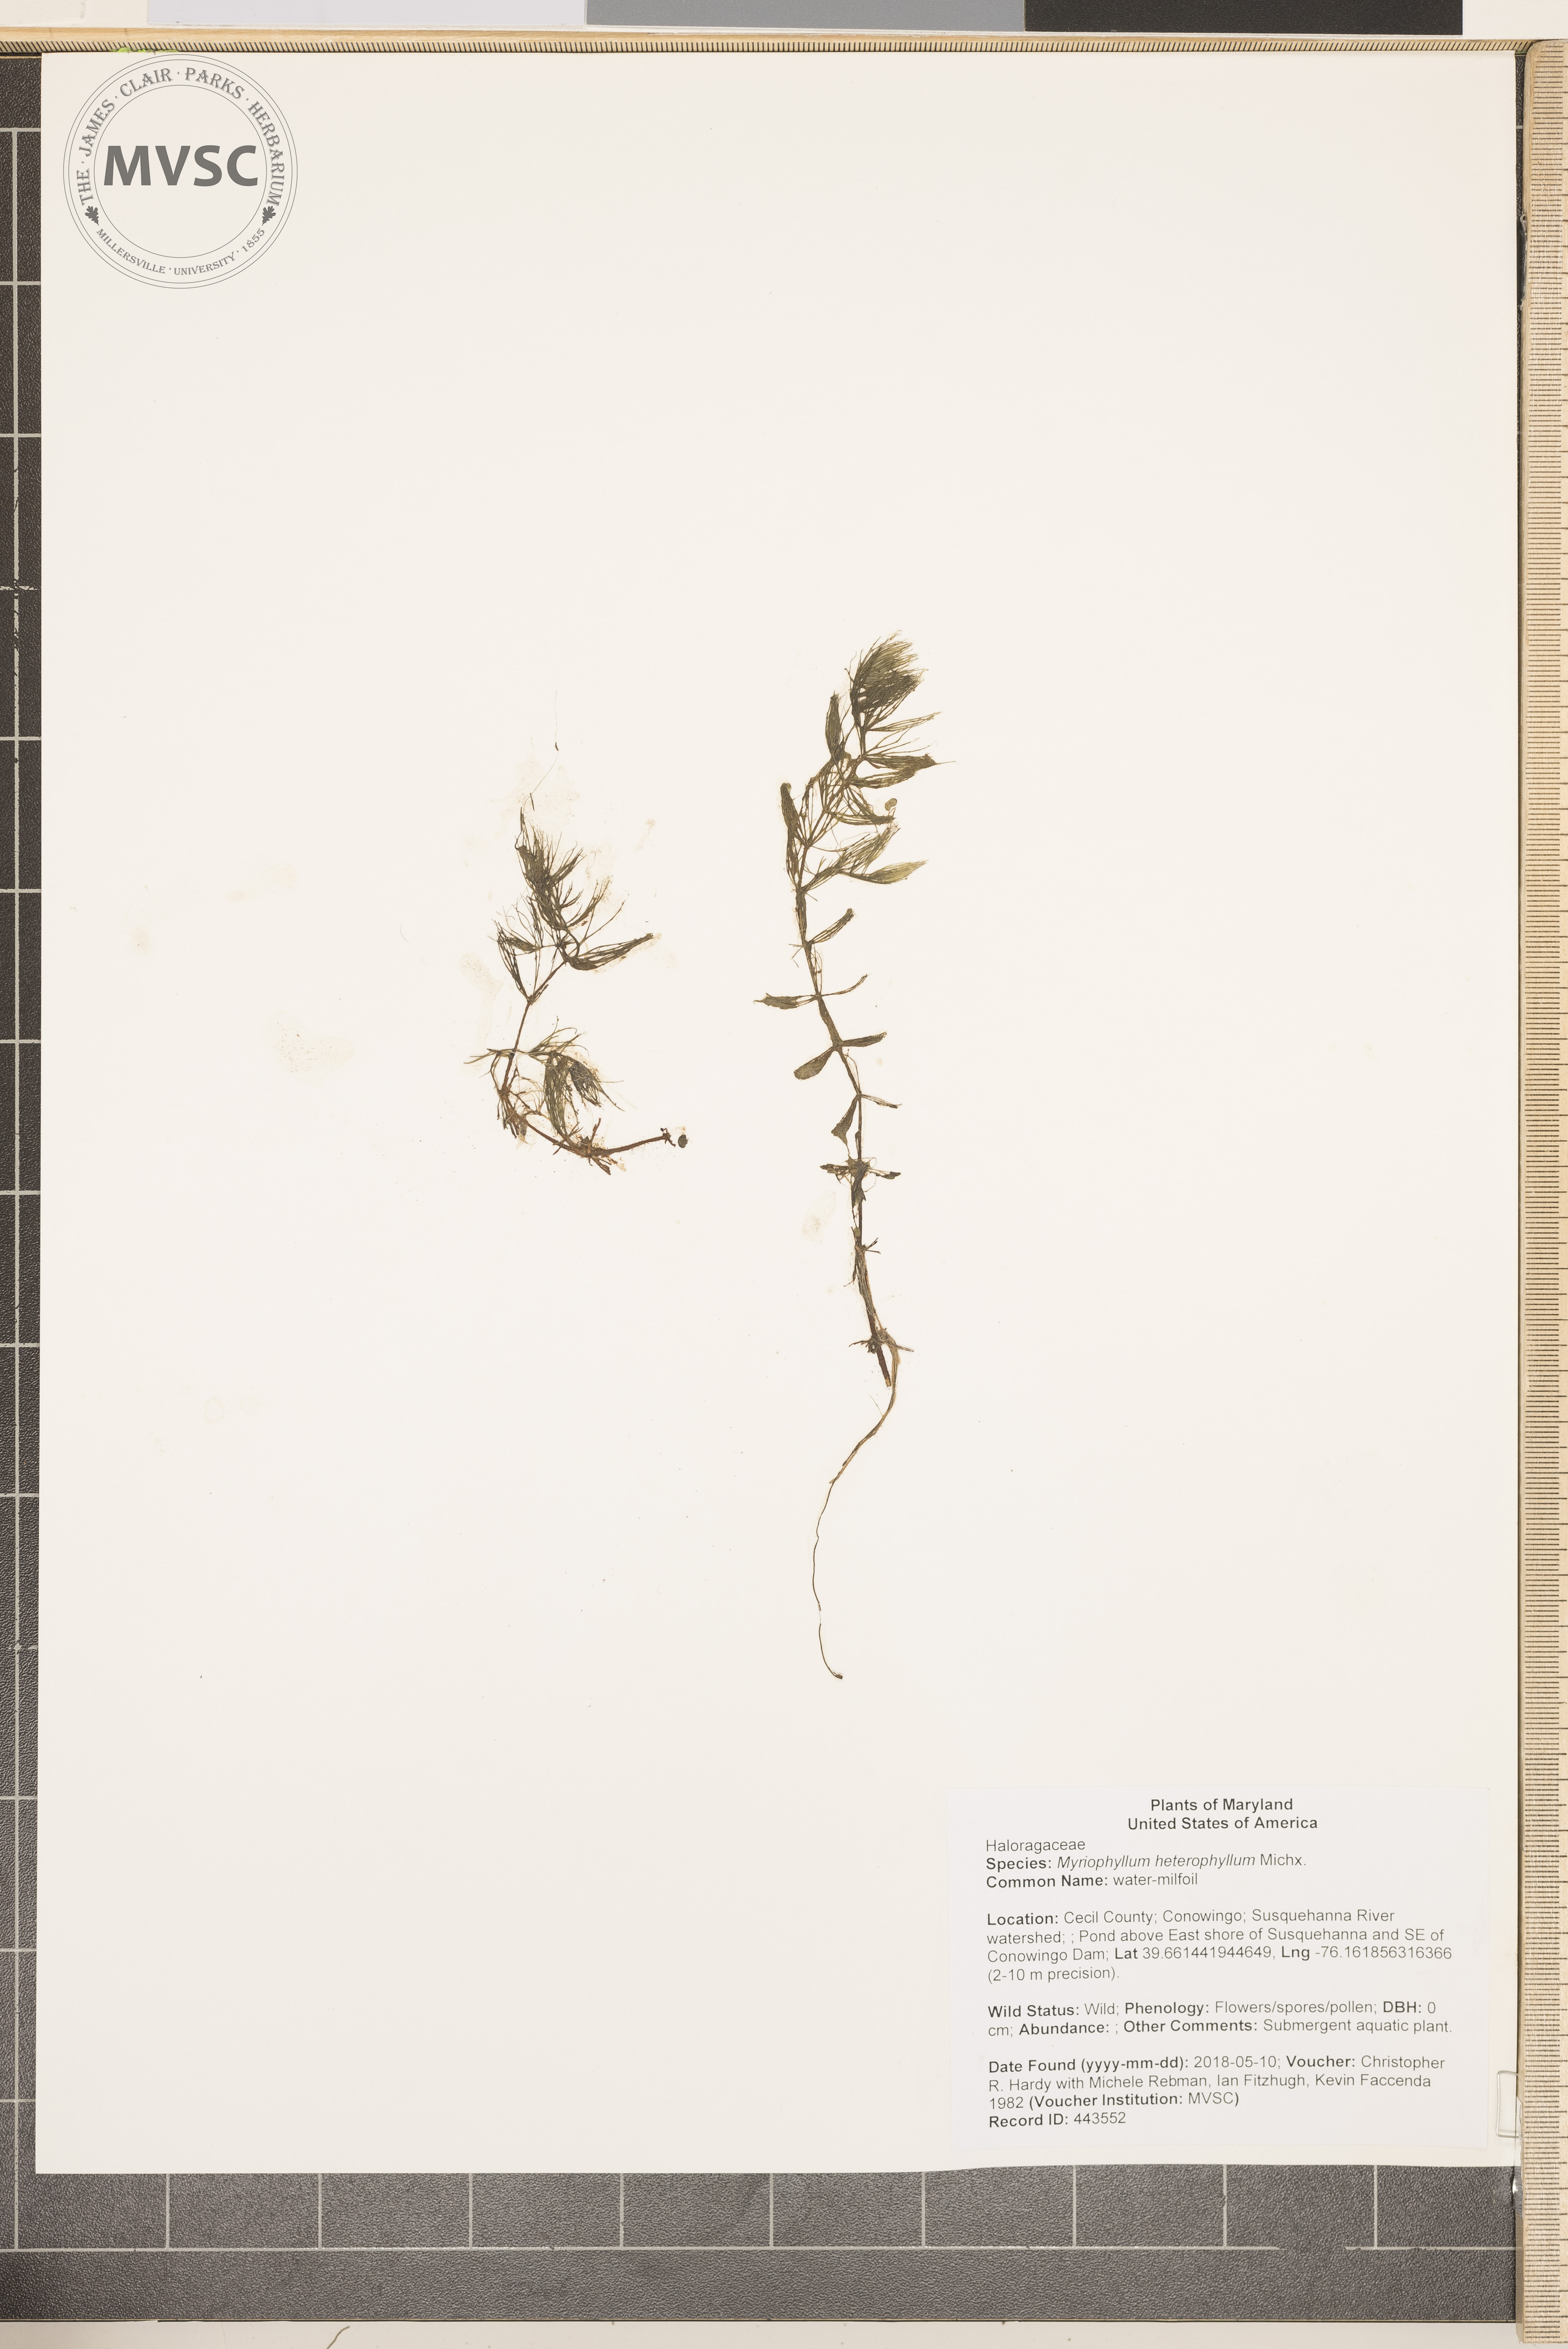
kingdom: Plantae
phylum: Tracheophyta
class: Magnoliopsida
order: Saxifragales
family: Haloragaceae
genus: Myriophyllum
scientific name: Myriophyllum heterophyllum
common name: water-milfoil
